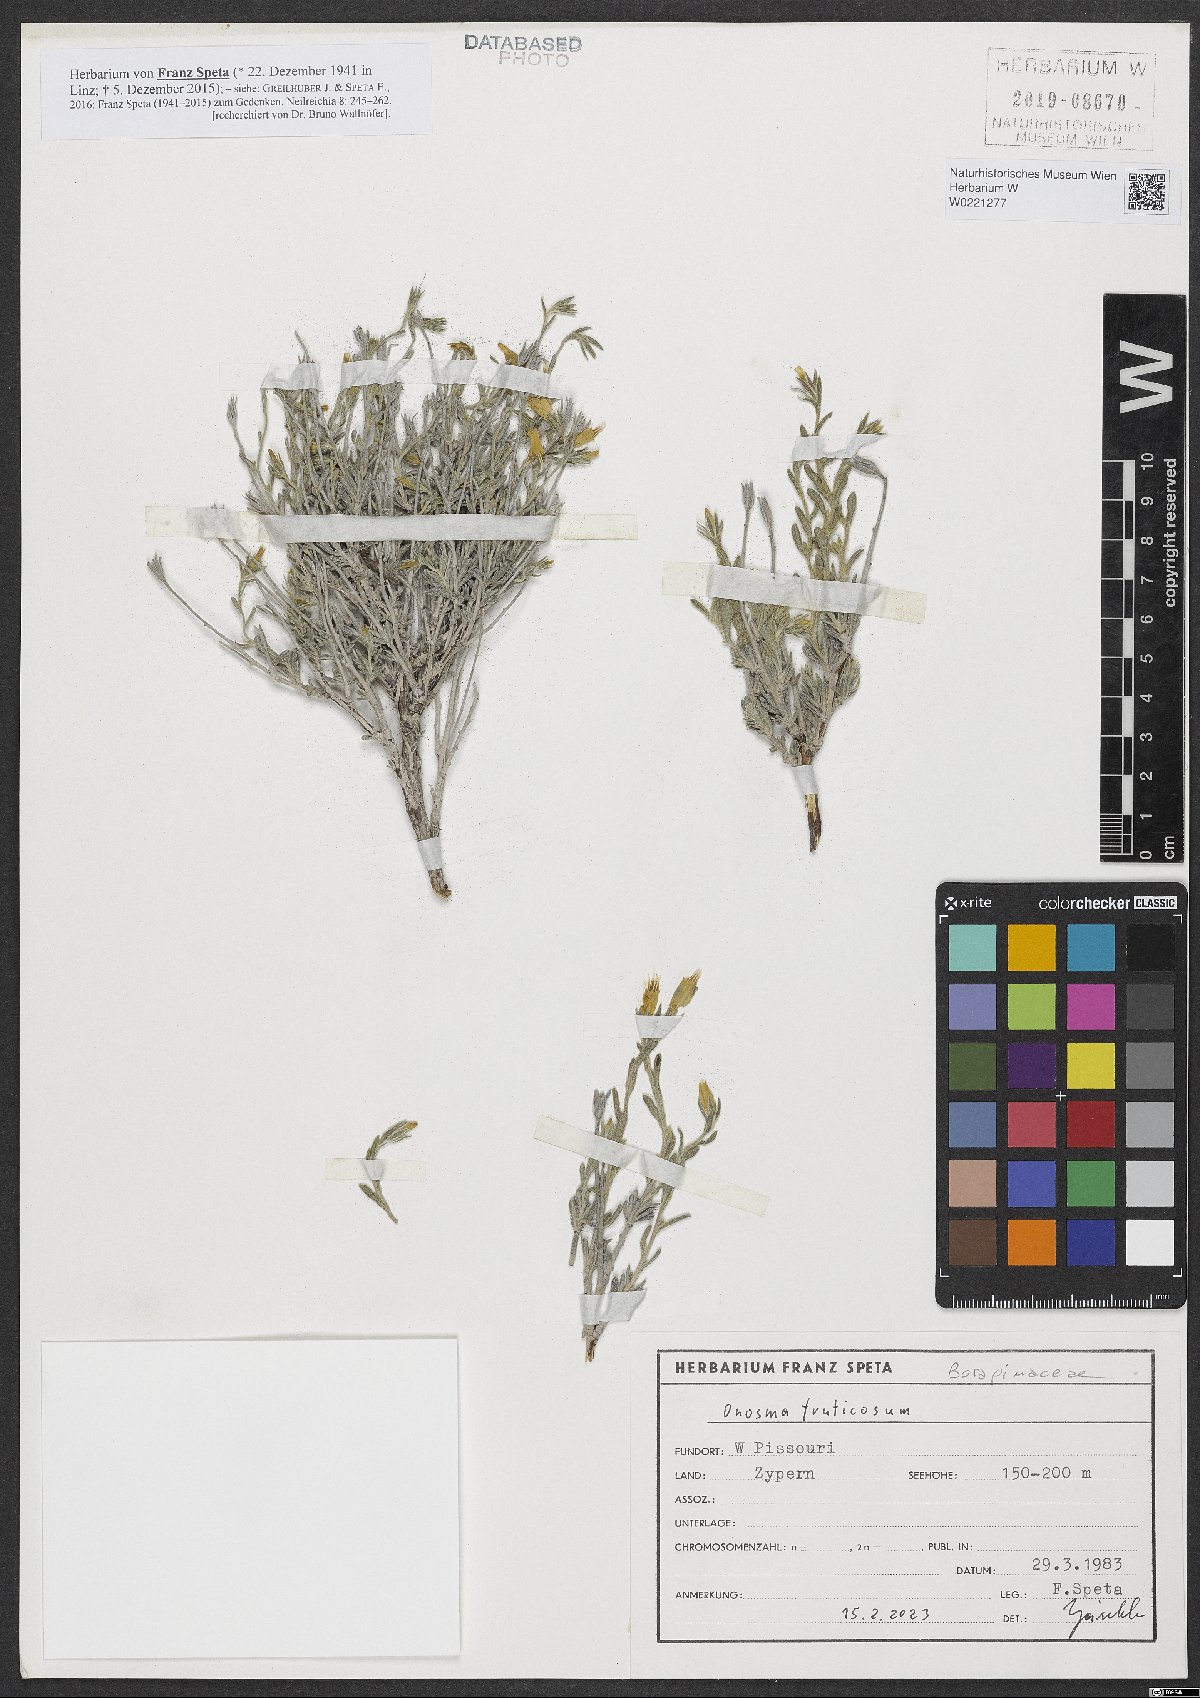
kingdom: Plantae
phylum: Tracheophyta
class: Magnoliopsida
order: Boraginales
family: Boraginaceae
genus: Onosma
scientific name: Onosma fruticosa
